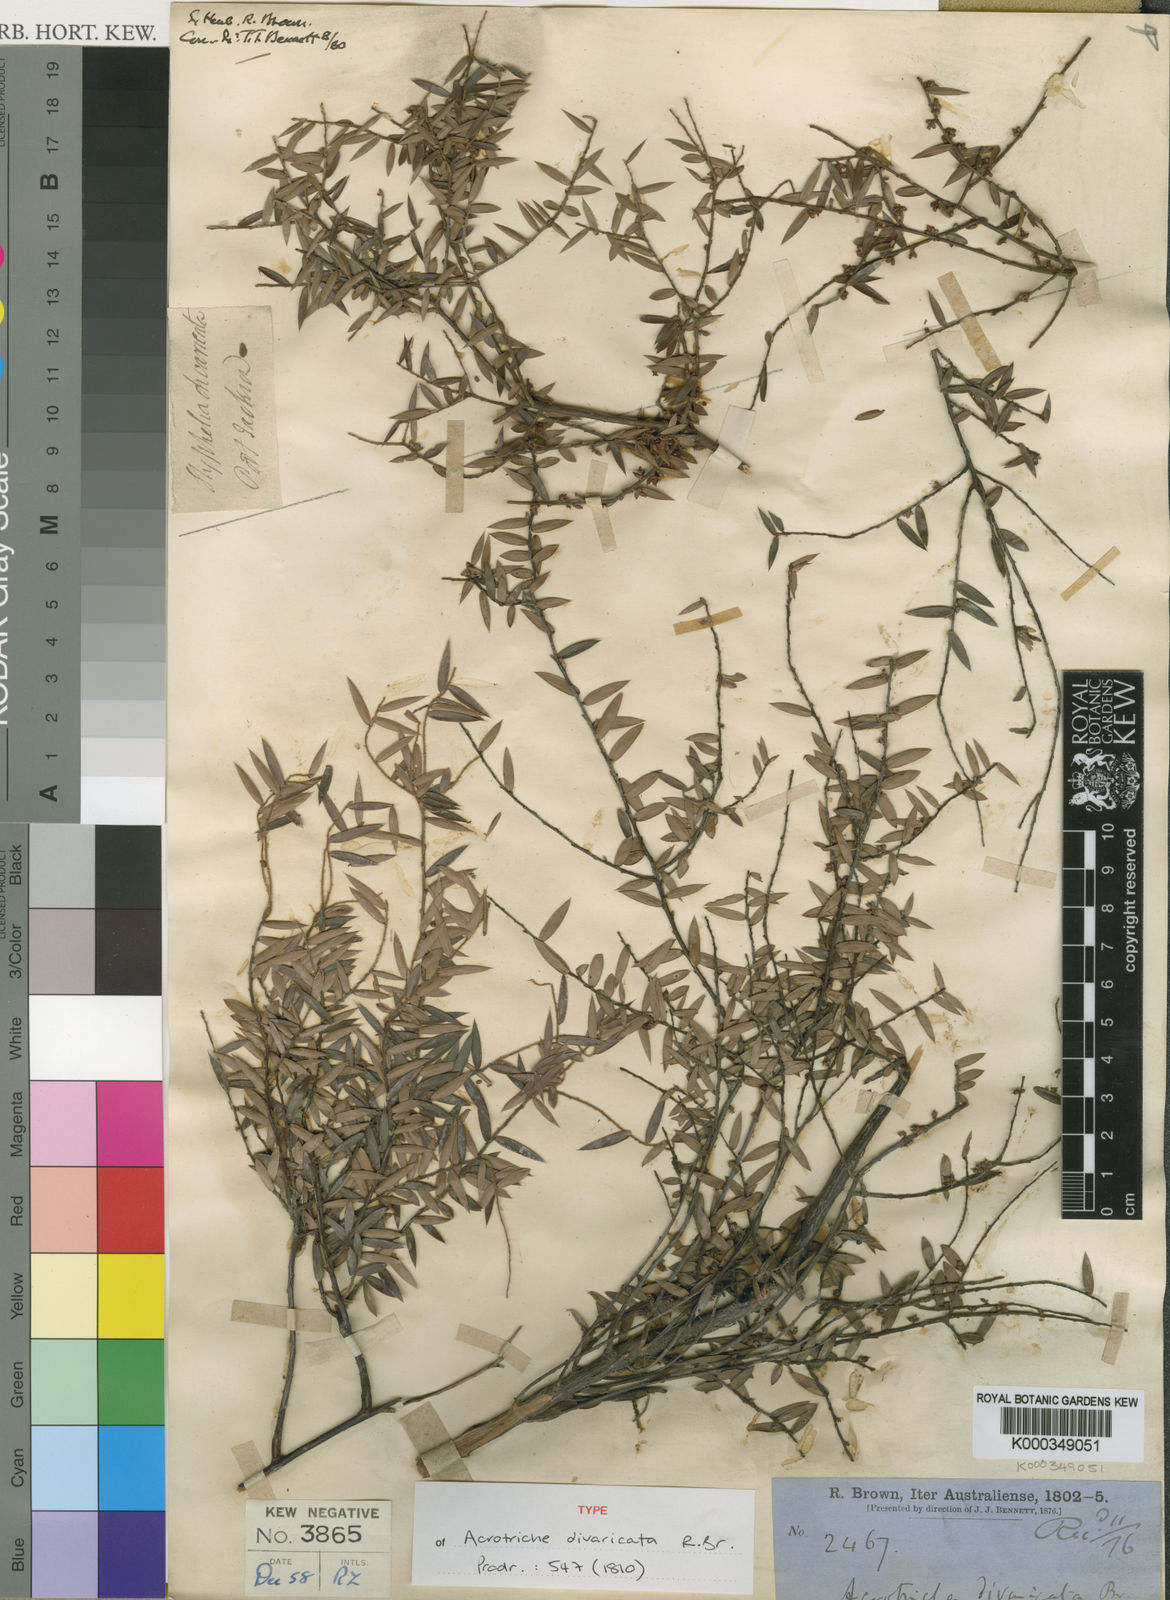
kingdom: Plantae
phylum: Tracheophyta
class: Magnoliopsida
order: Ericales
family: Ericaceae
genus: Acrotriche
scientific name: Acrotriche divaricata
